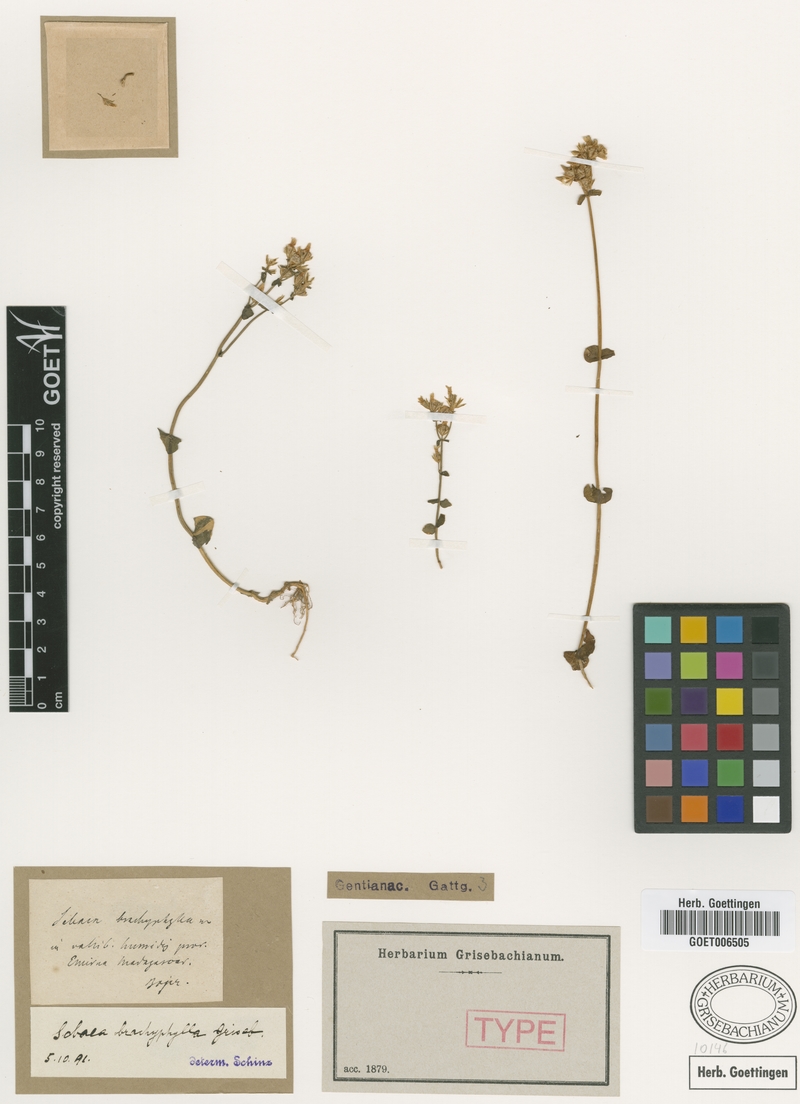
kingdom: Plantae
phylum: Tracheophyta
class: Magnoliopsida
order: Gentianales
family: Gentianaceae
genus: Sebaea
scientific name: Sebaea brachyphylla
